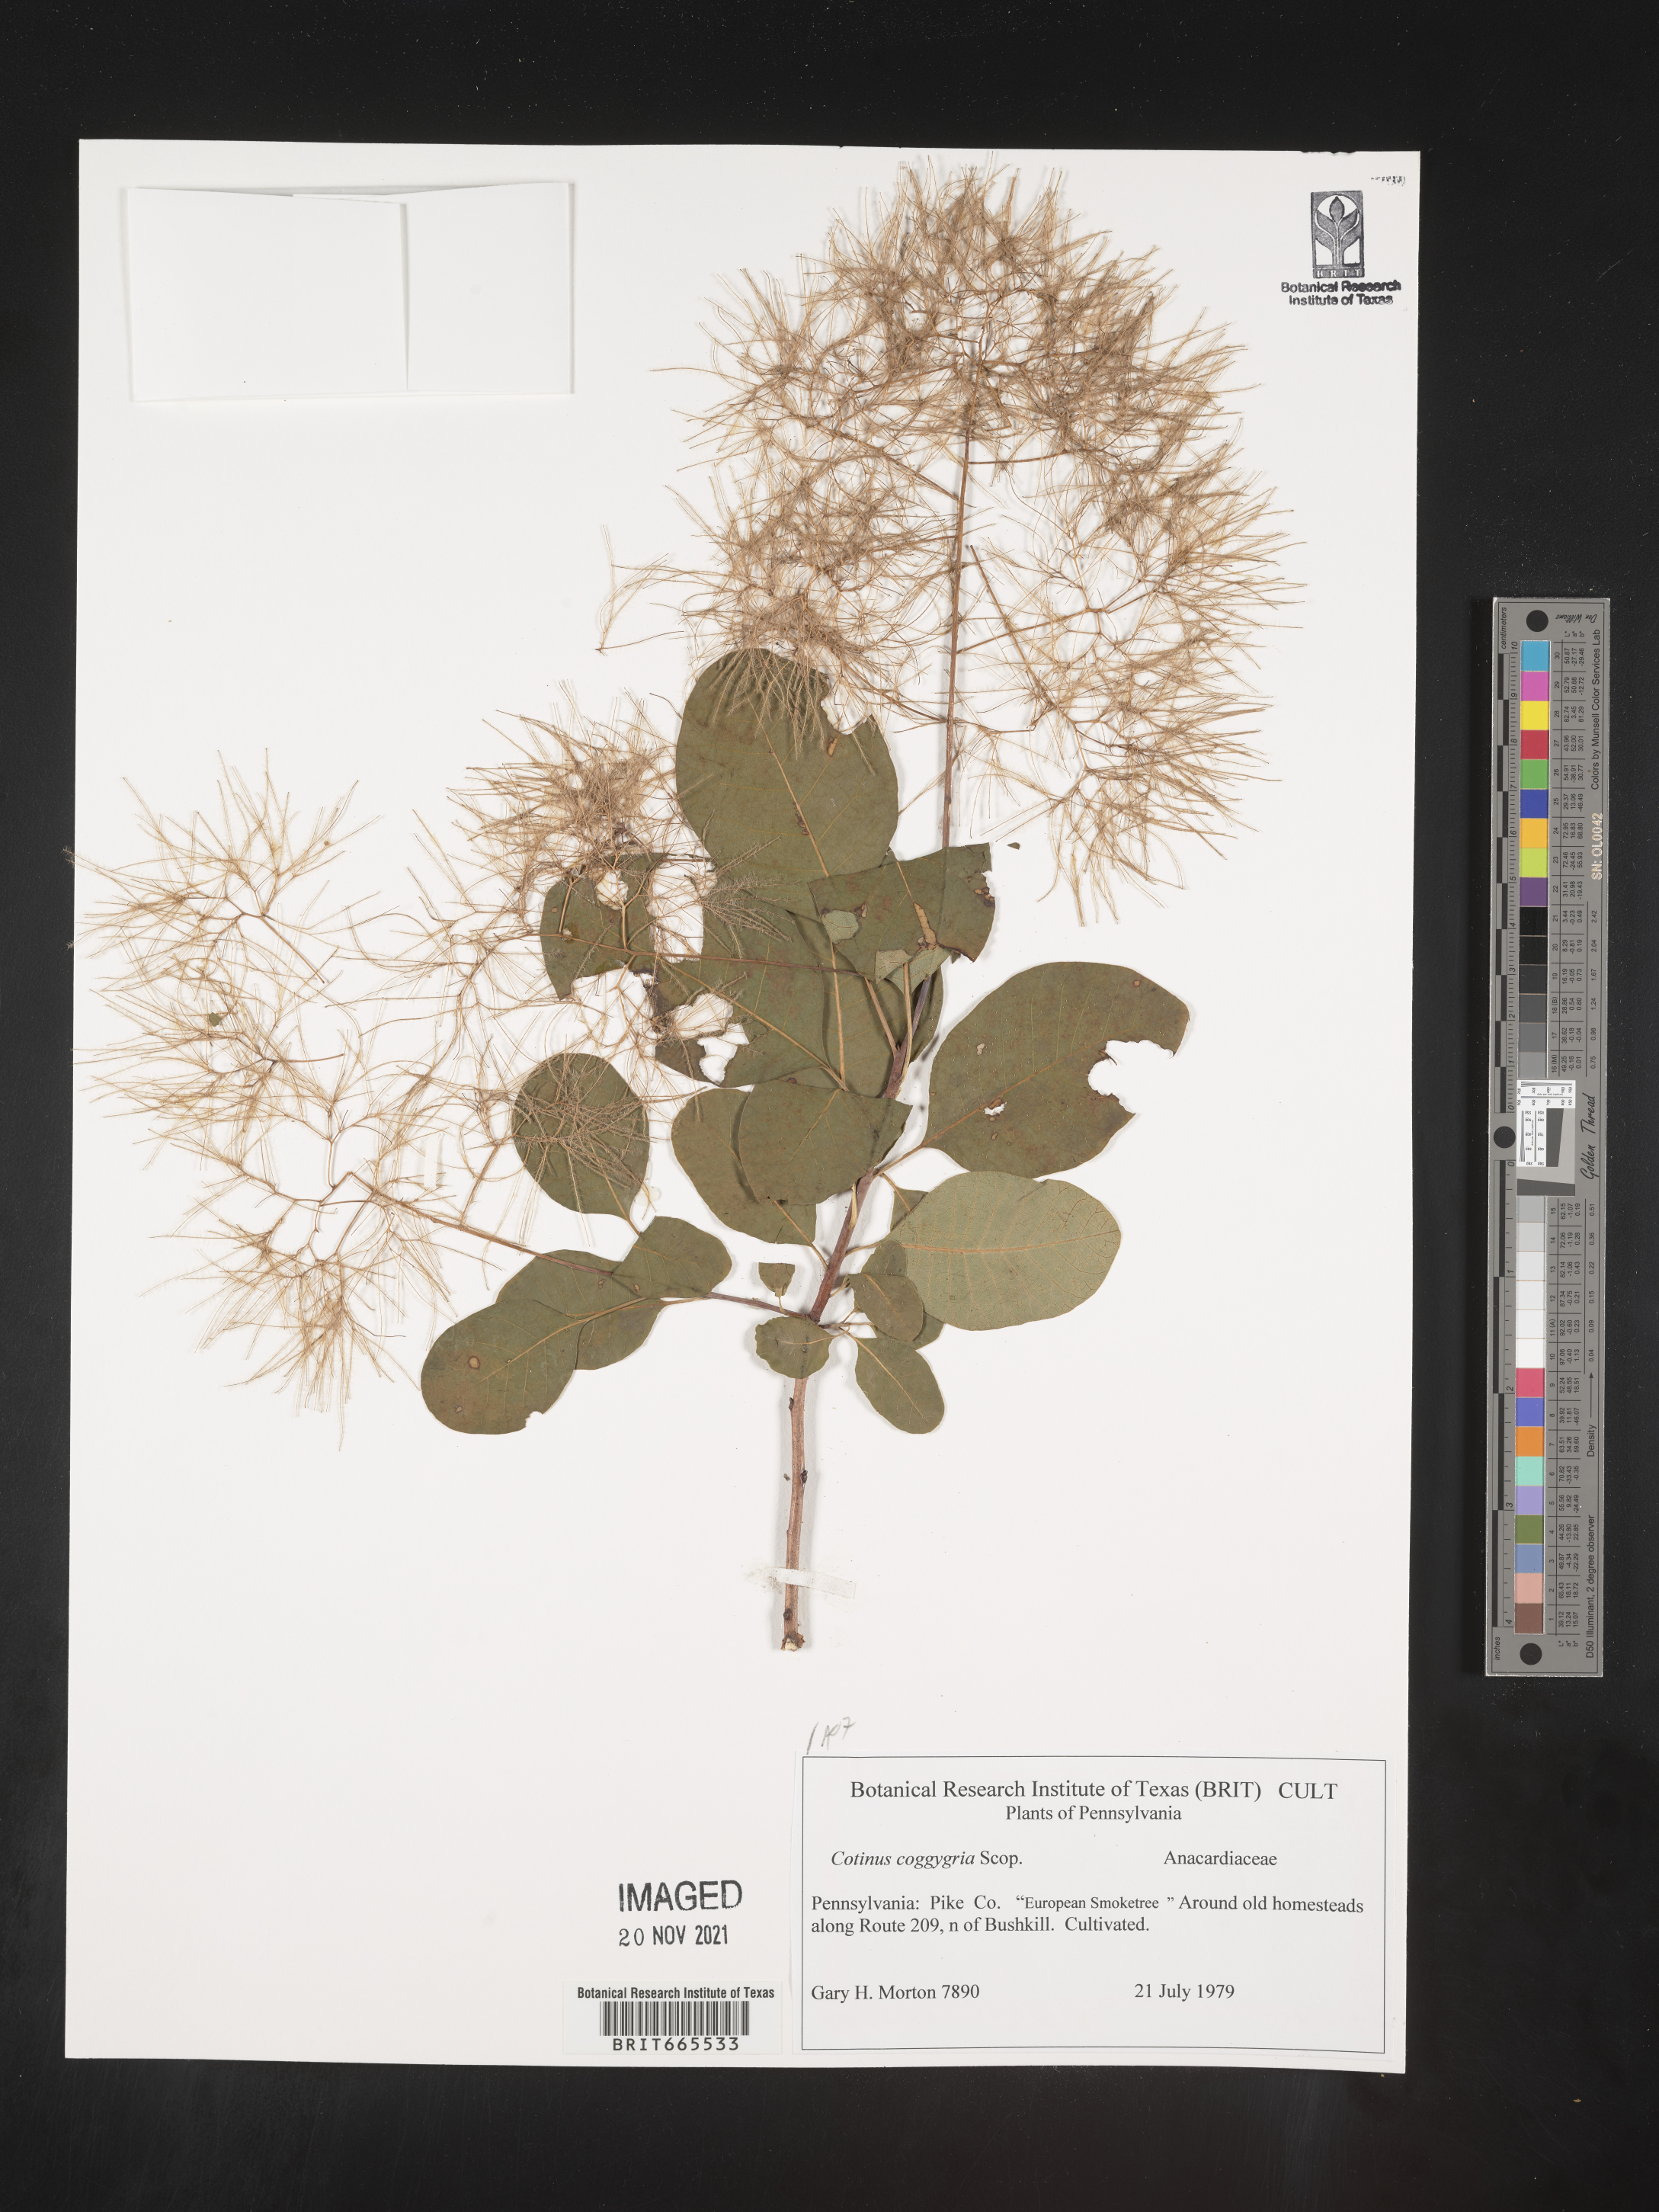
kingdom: Plantae
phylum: Tracheophyta
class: Magnoliopsida
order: Sapindales
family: Anacardiaceae
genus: Cotinus
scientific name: Cotinus coggygria
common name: Smoke-tree
